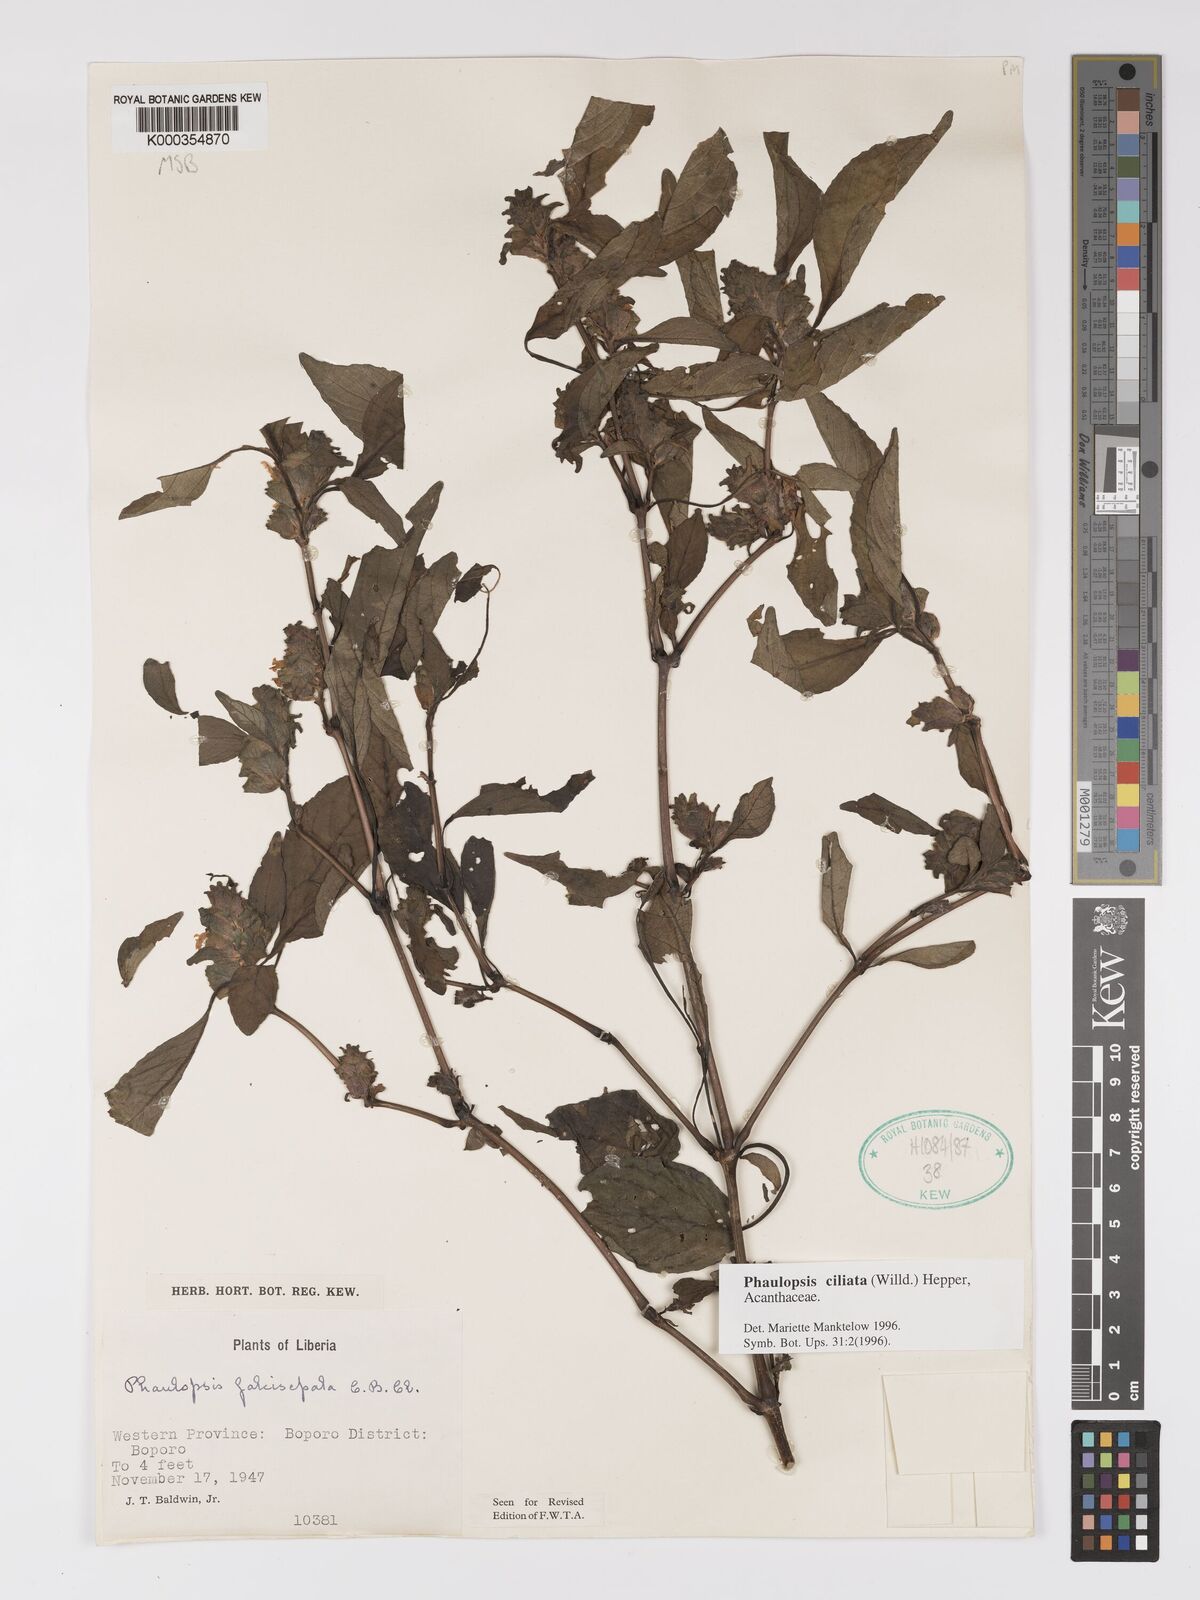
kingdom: Plantae
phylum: Tracheophyta
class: Magnoliopsida
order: Lamiales
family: Acanthaceae
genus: Phaulopsis
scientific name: Phaulopsis ciliata
